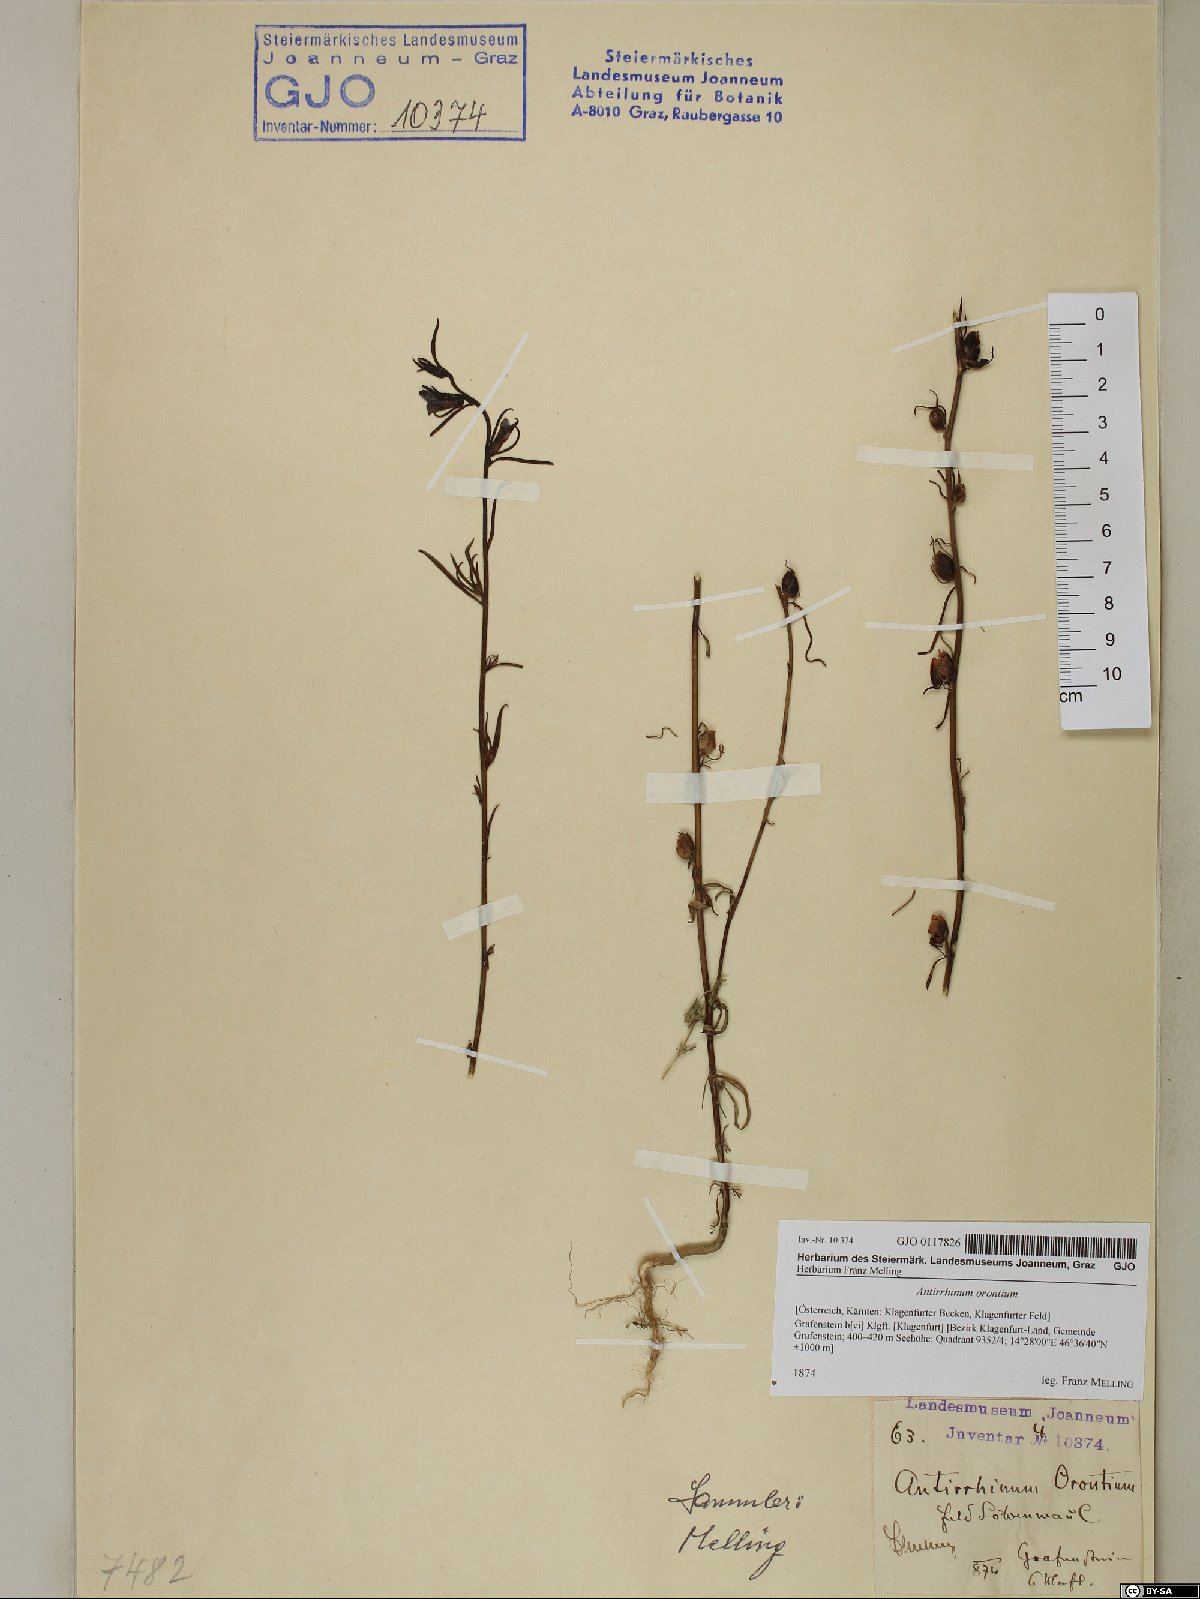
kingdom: Plantae
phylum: Tracheophyta
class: Magnoliopsida
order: Lamiales
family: Plantaginaceae
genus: Misopates
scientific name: Misopates orontium
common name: Weasel's-snout
